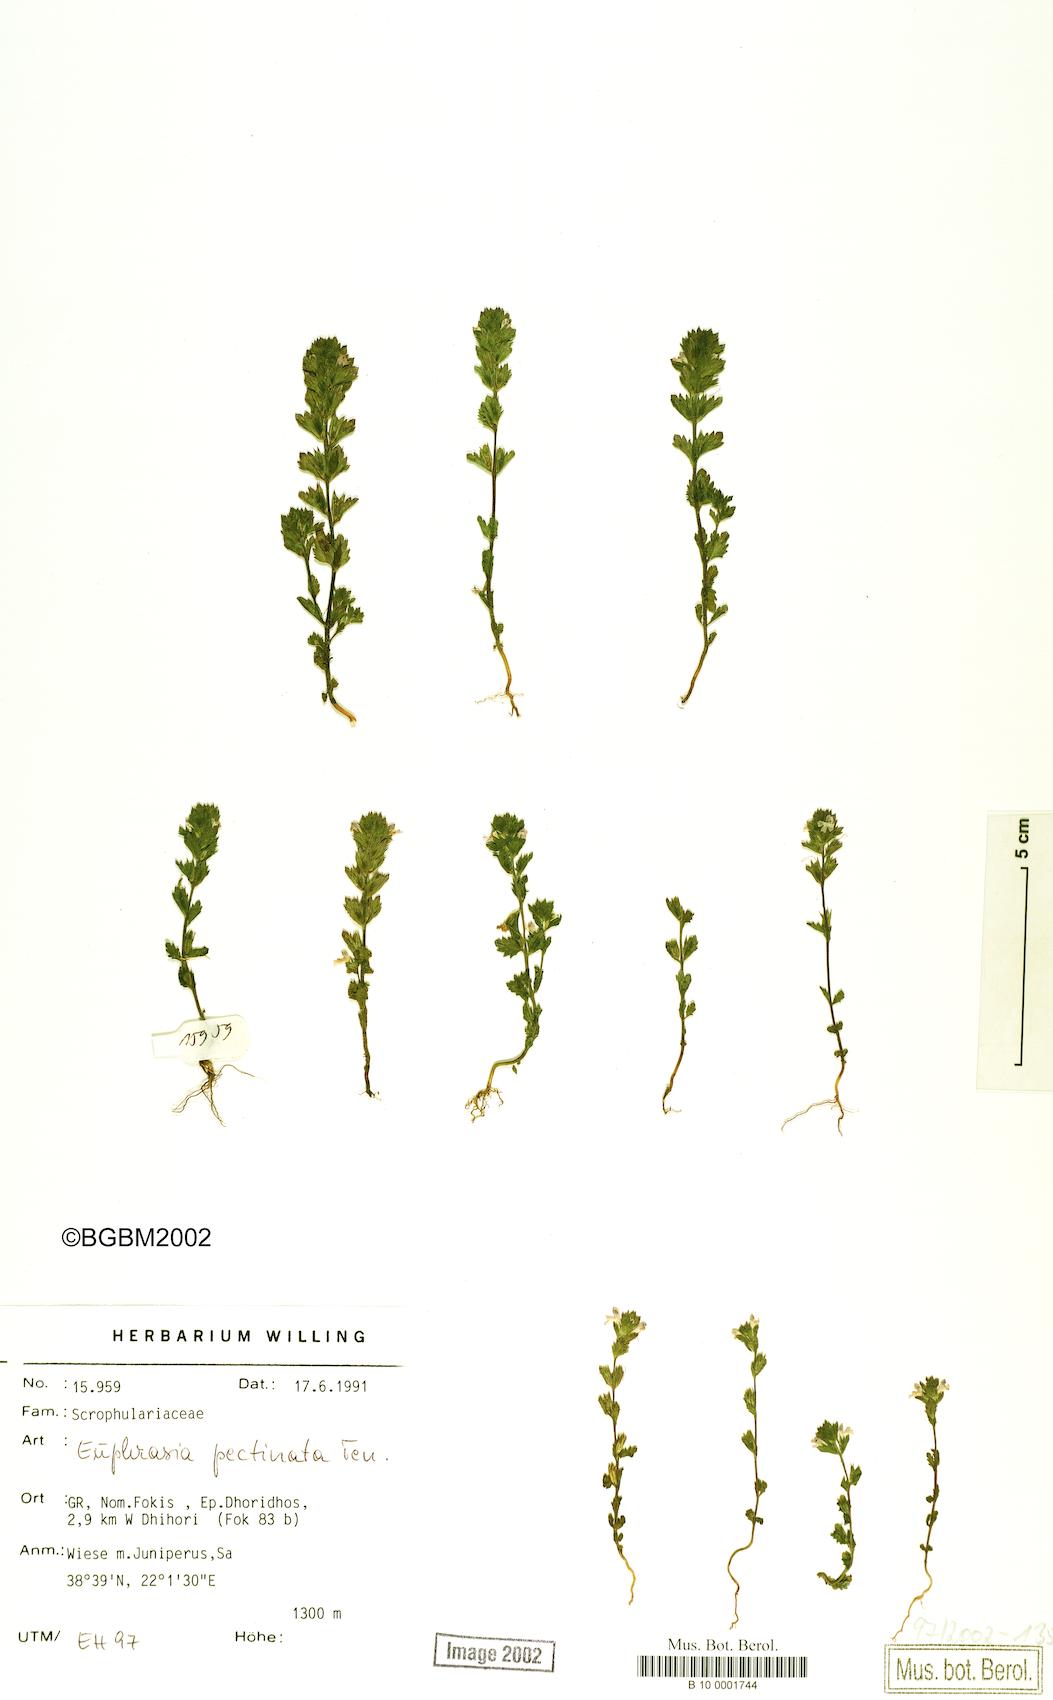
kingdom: Plantae
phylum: Tracheophyta
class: Magnoliopsida
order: Lamiales
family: Orobanchaceae
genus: Euphrasia
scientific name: Euphrasia pectinata
